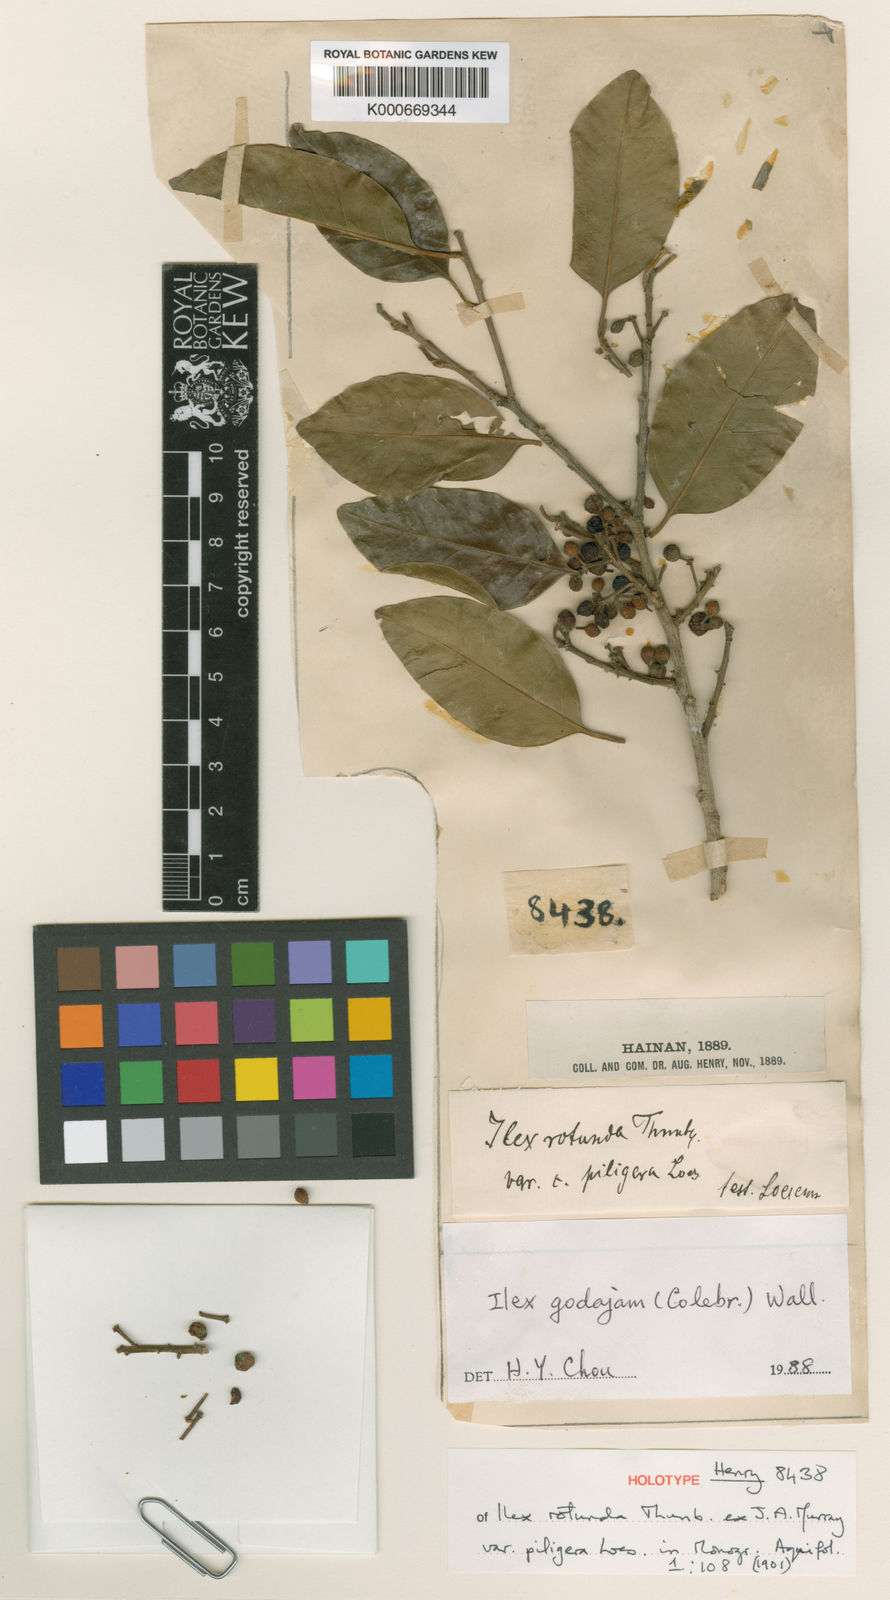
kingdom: Plantae
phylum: Tracheophyta
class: Magnoliopsida
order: Aquifoliales
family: Aquifoliaceae
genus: Ilex
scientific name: Ilex godajam
